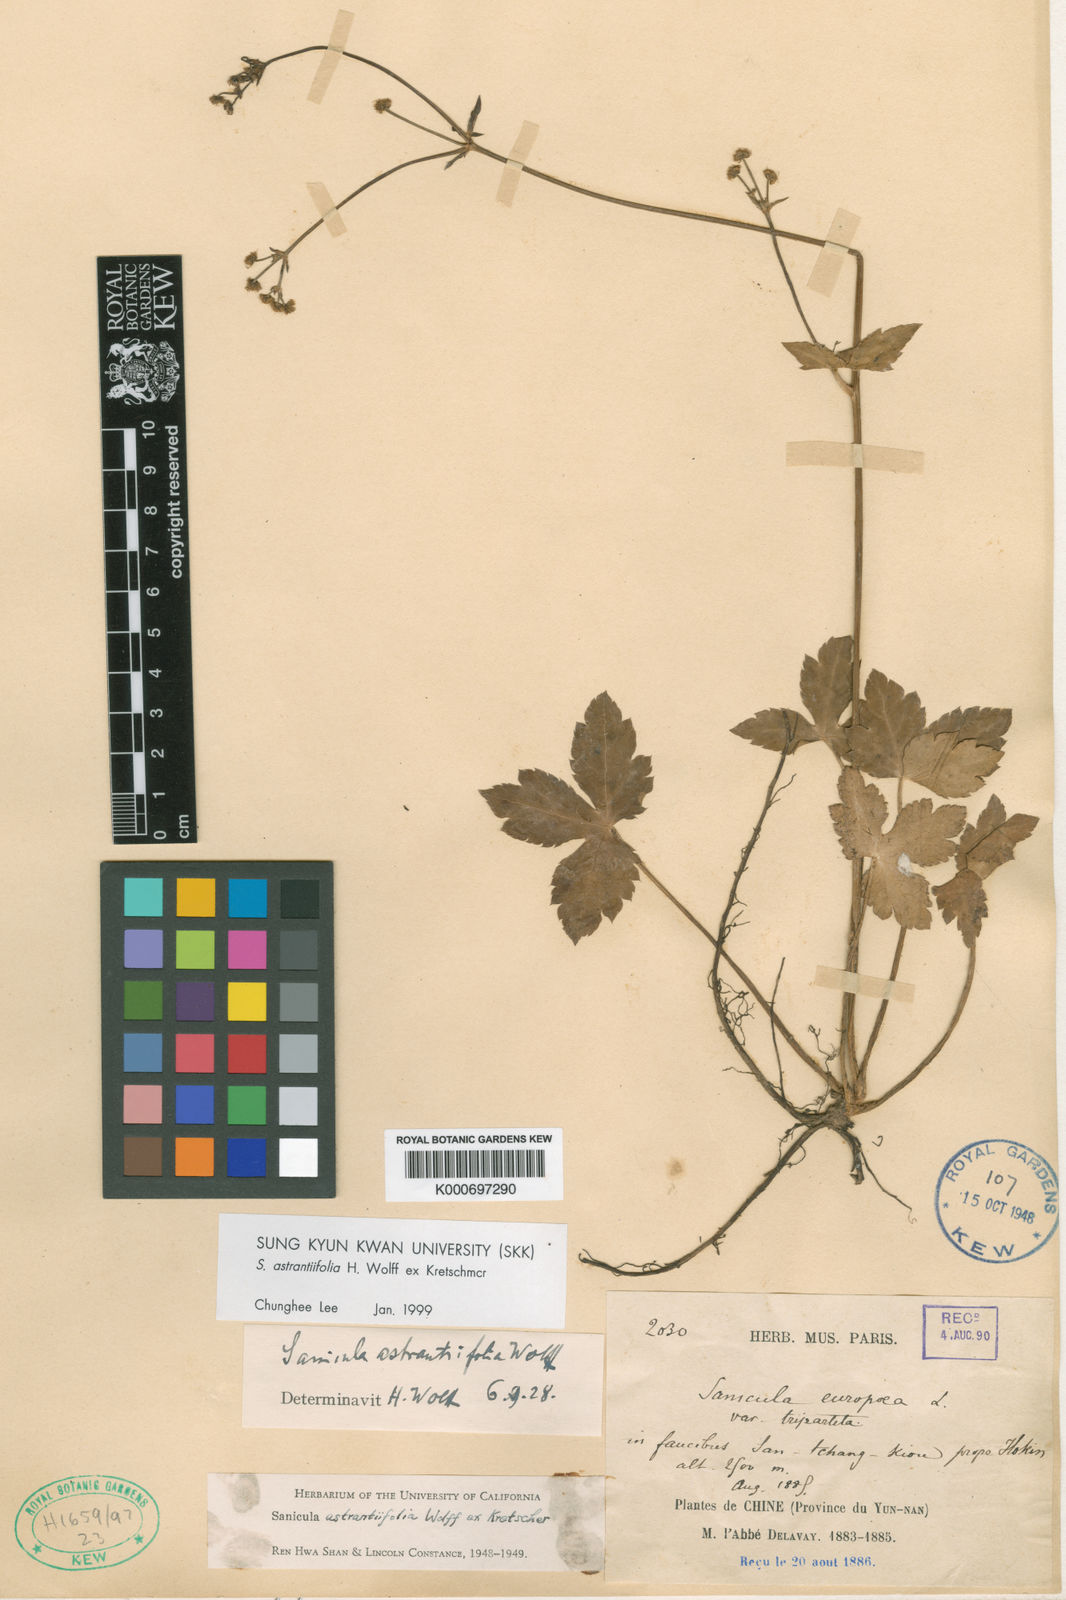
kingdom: Plantae
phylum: Tracheophyta
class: Magnoliopsida
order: Apiales
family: Apiaceae
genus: Sanicula
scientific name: Sanicula astrantiifolia
